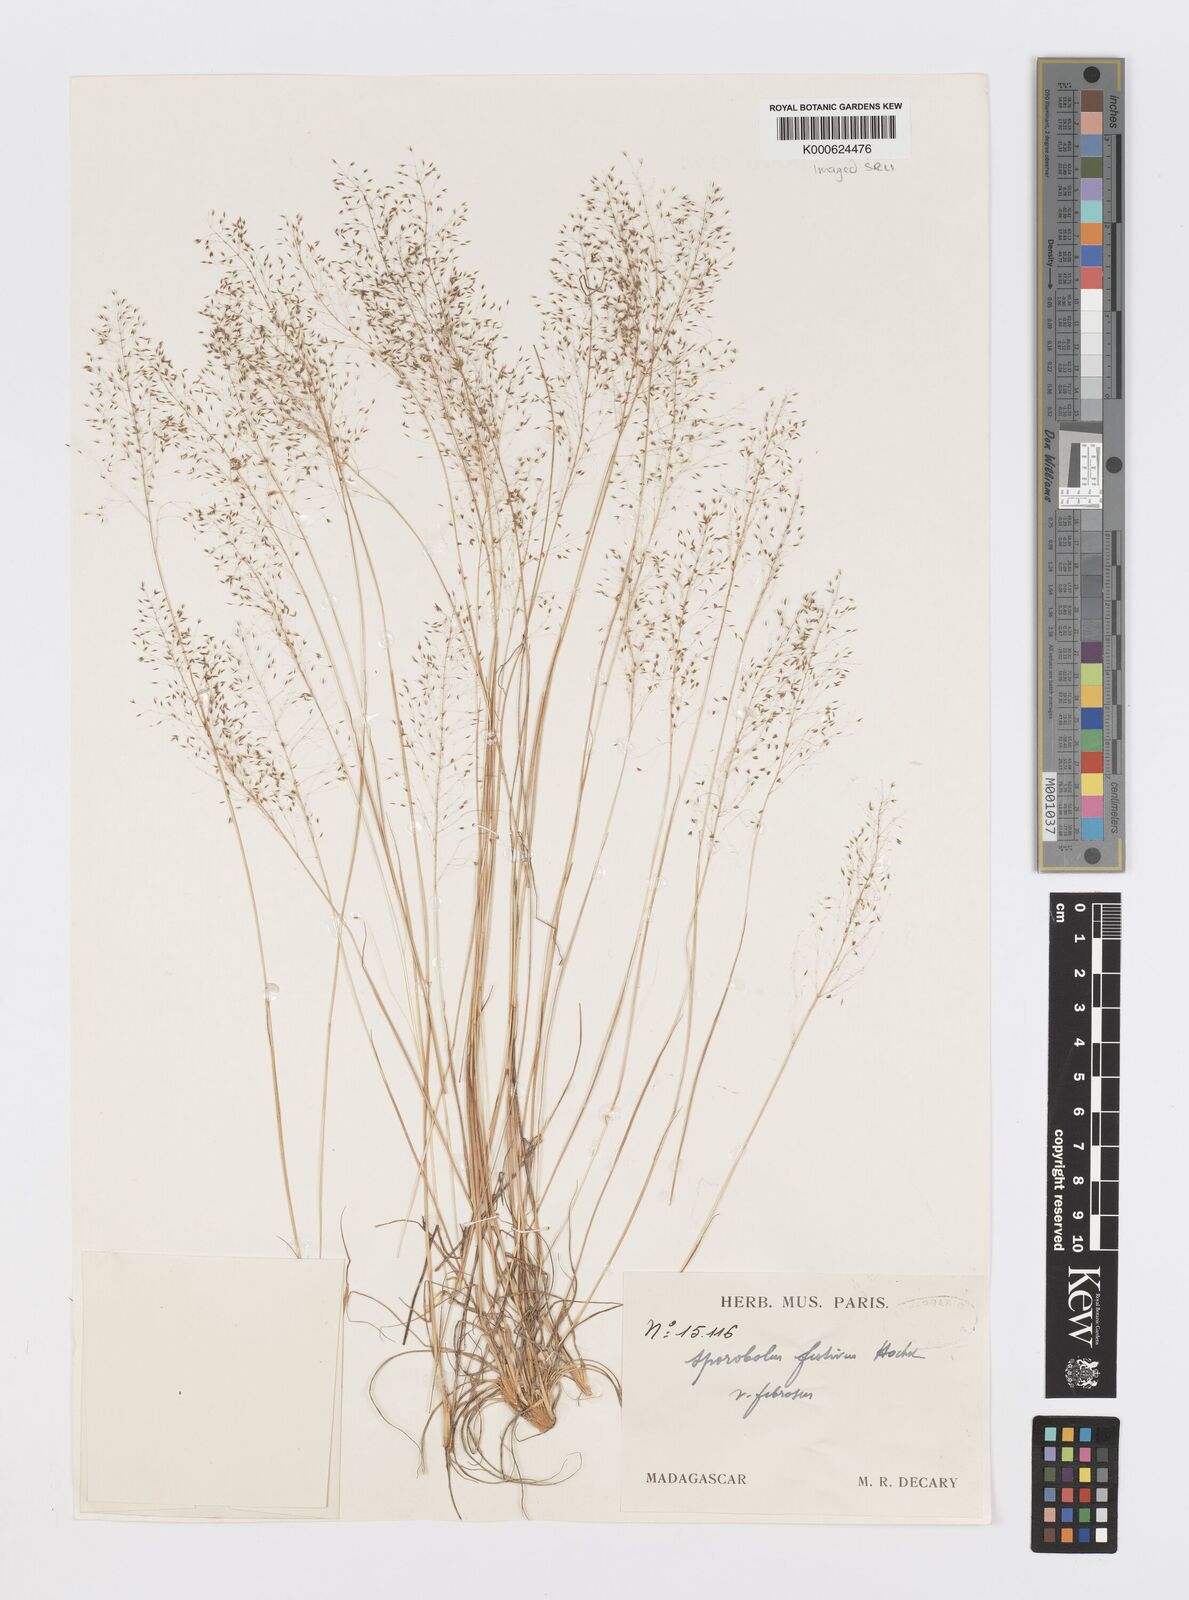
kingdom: Plantae
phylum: Tracheophyta
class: Liliopsida
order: Poales
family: Poaceae
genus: Sporobolus
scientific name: Sporobolus stapfianus
